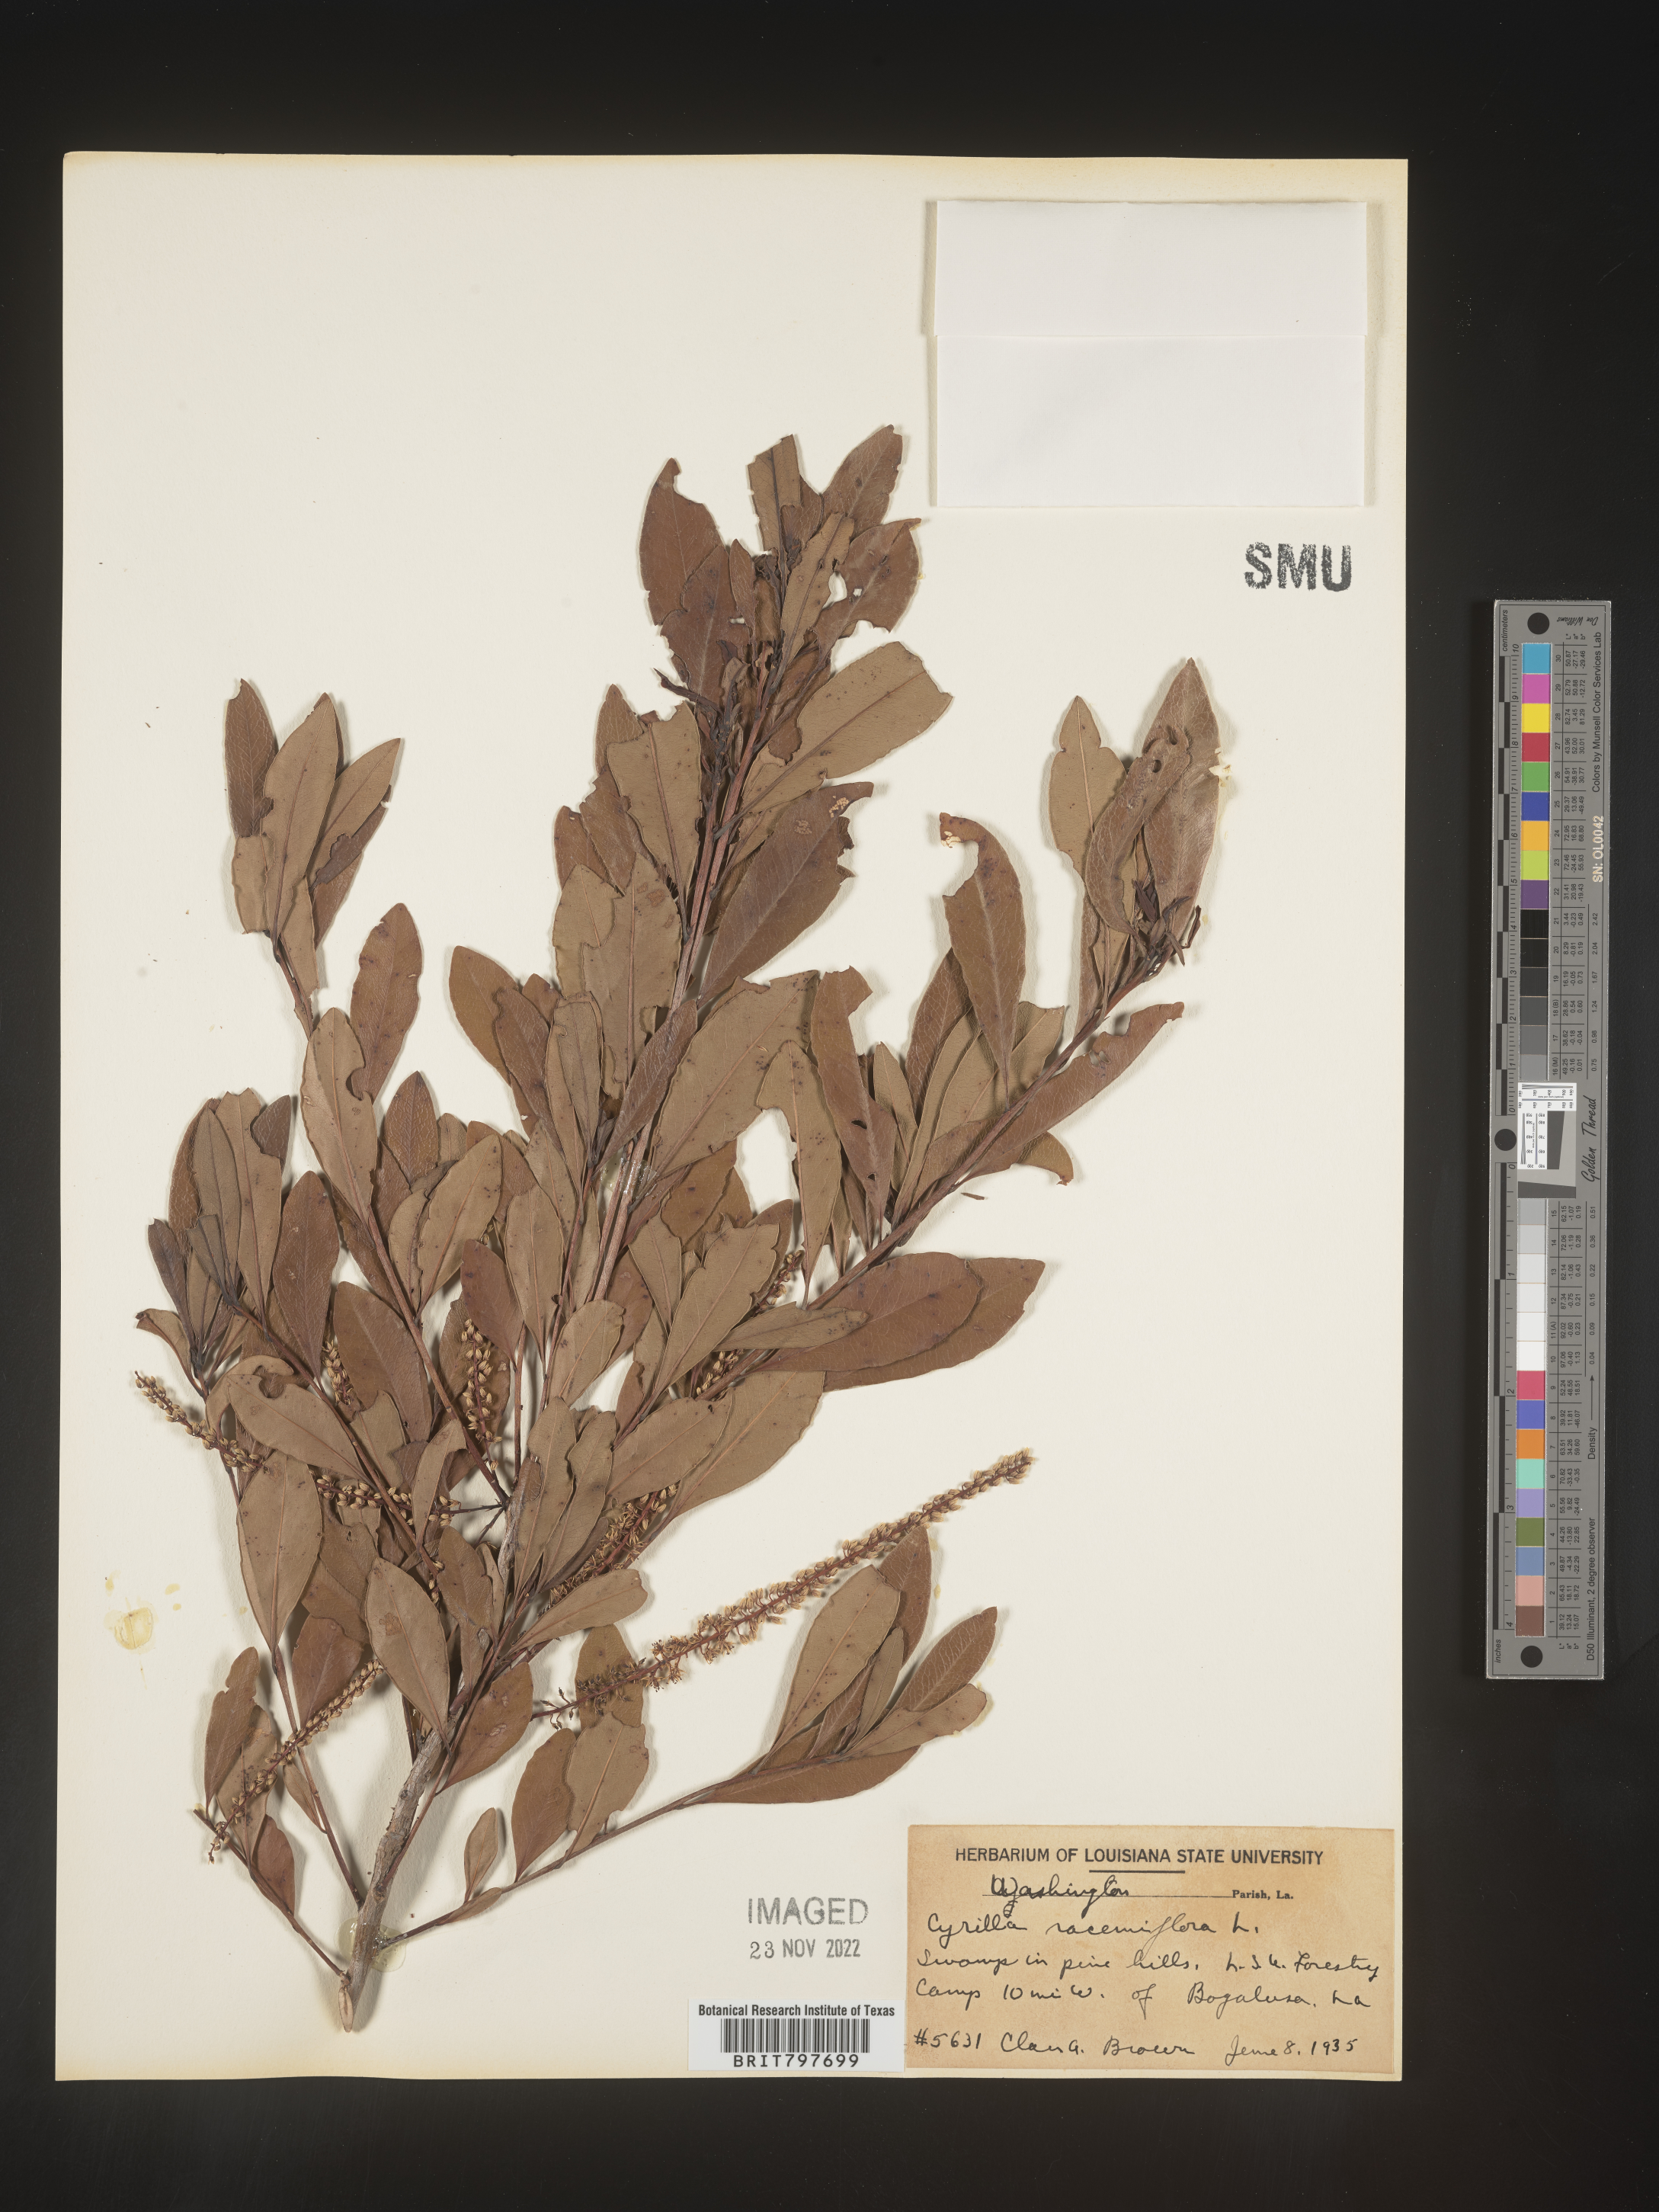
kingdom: Plantae
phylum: Tracheophyta
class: Magnoliopsida
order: Ericales
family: Cyrillaceae
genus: Cyrilla
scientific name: Cyrilla racemiflora
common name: Black titi
